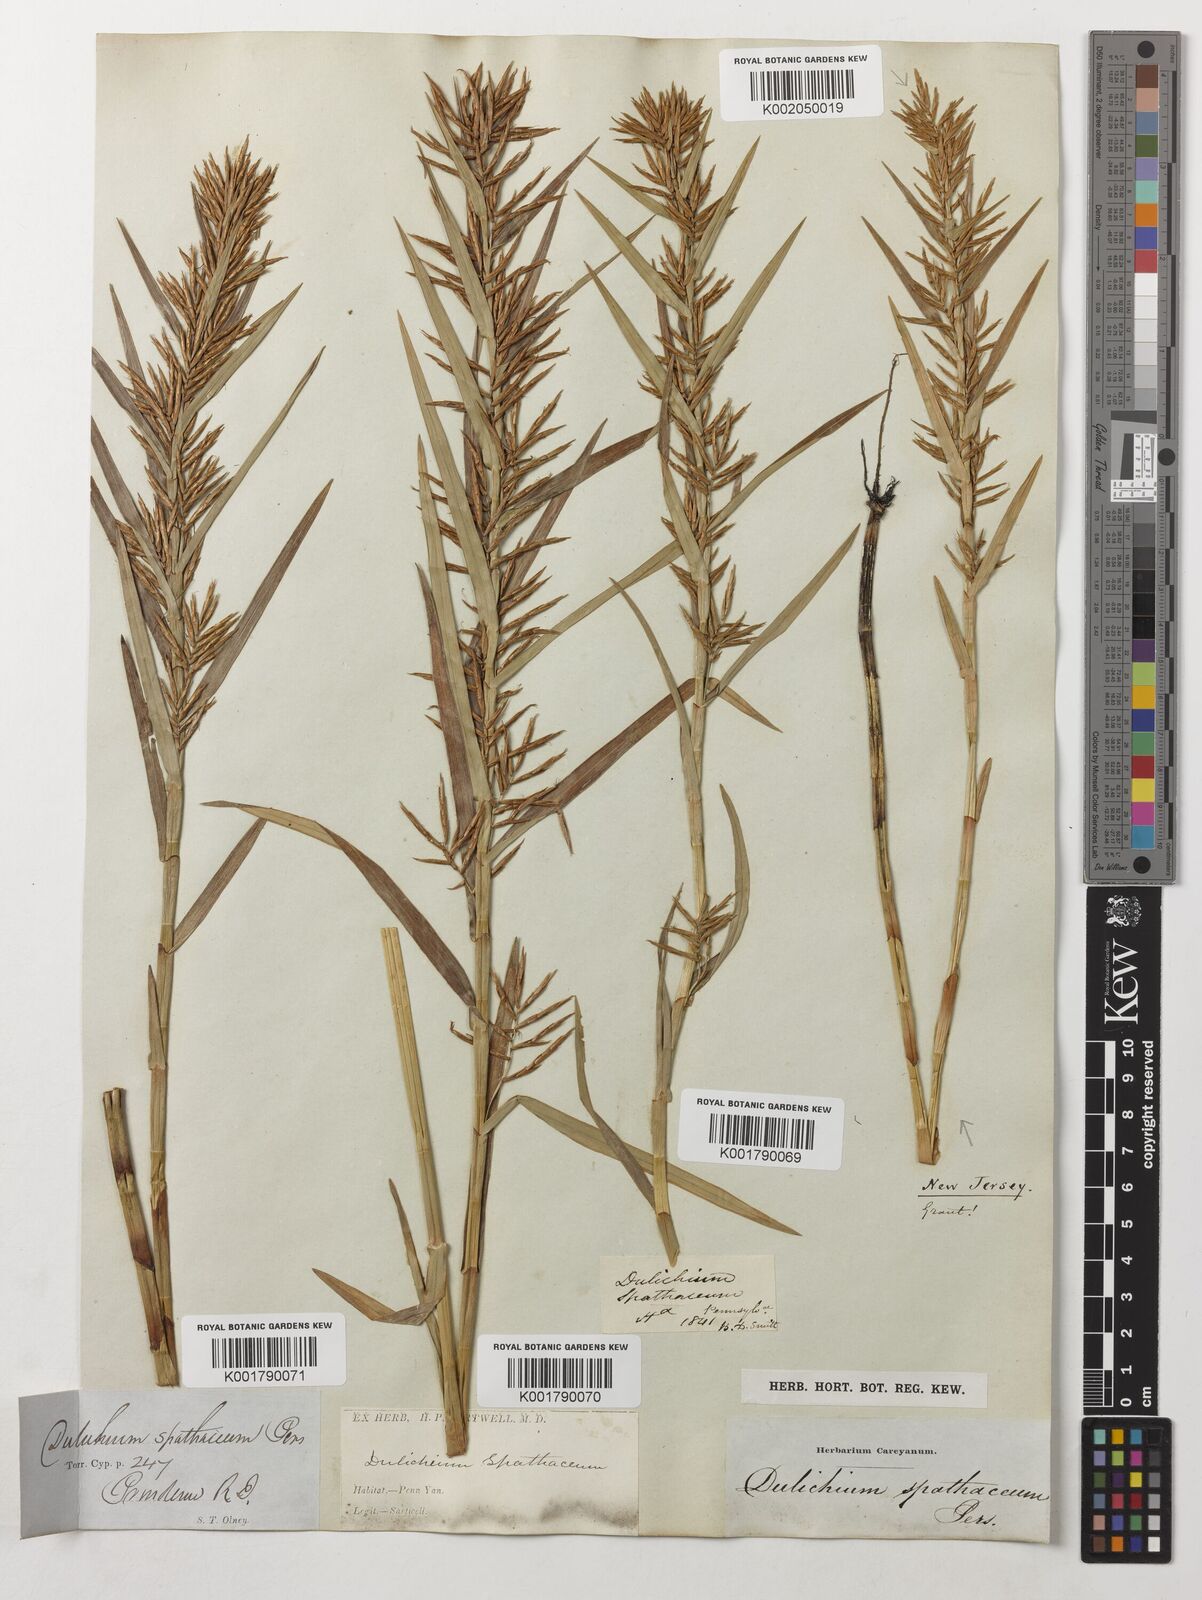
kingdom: Plantae
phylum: Tracheophyta
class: Liliopsida
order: Poales
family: Cyperaceae
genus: Dulichium
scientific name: Dulichium arundinaceum
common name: Three-way sedge
